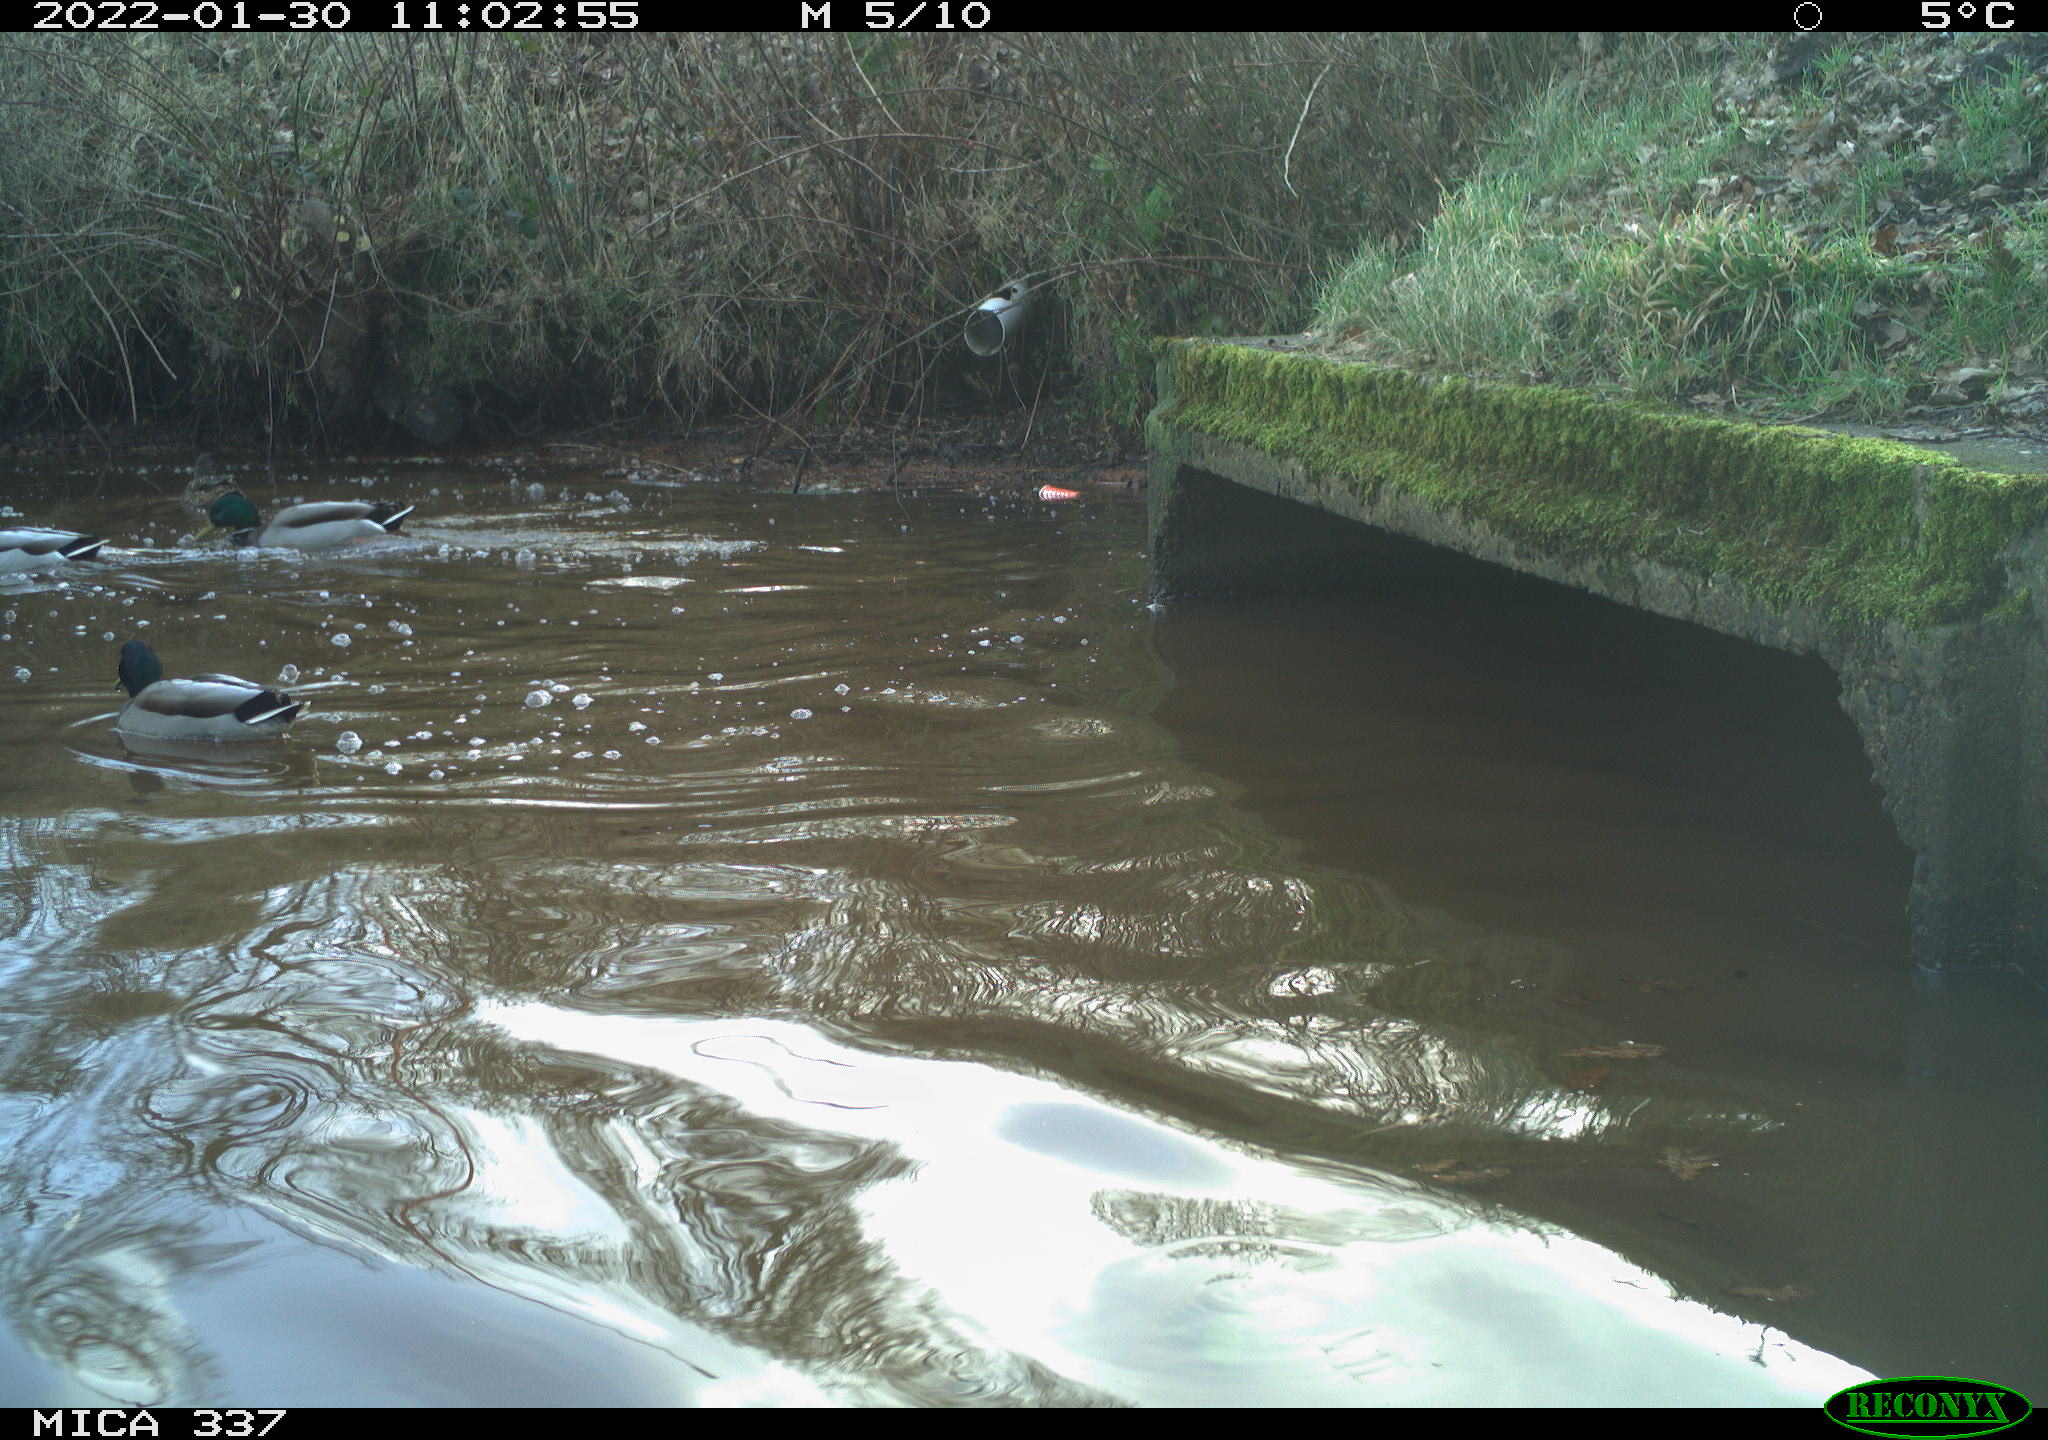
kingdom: Animalia
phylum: Chordata
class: Aves
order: Anseriformes
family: Anatidae
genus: Anas
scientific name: Anas platyrhynchos
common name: Mallard
